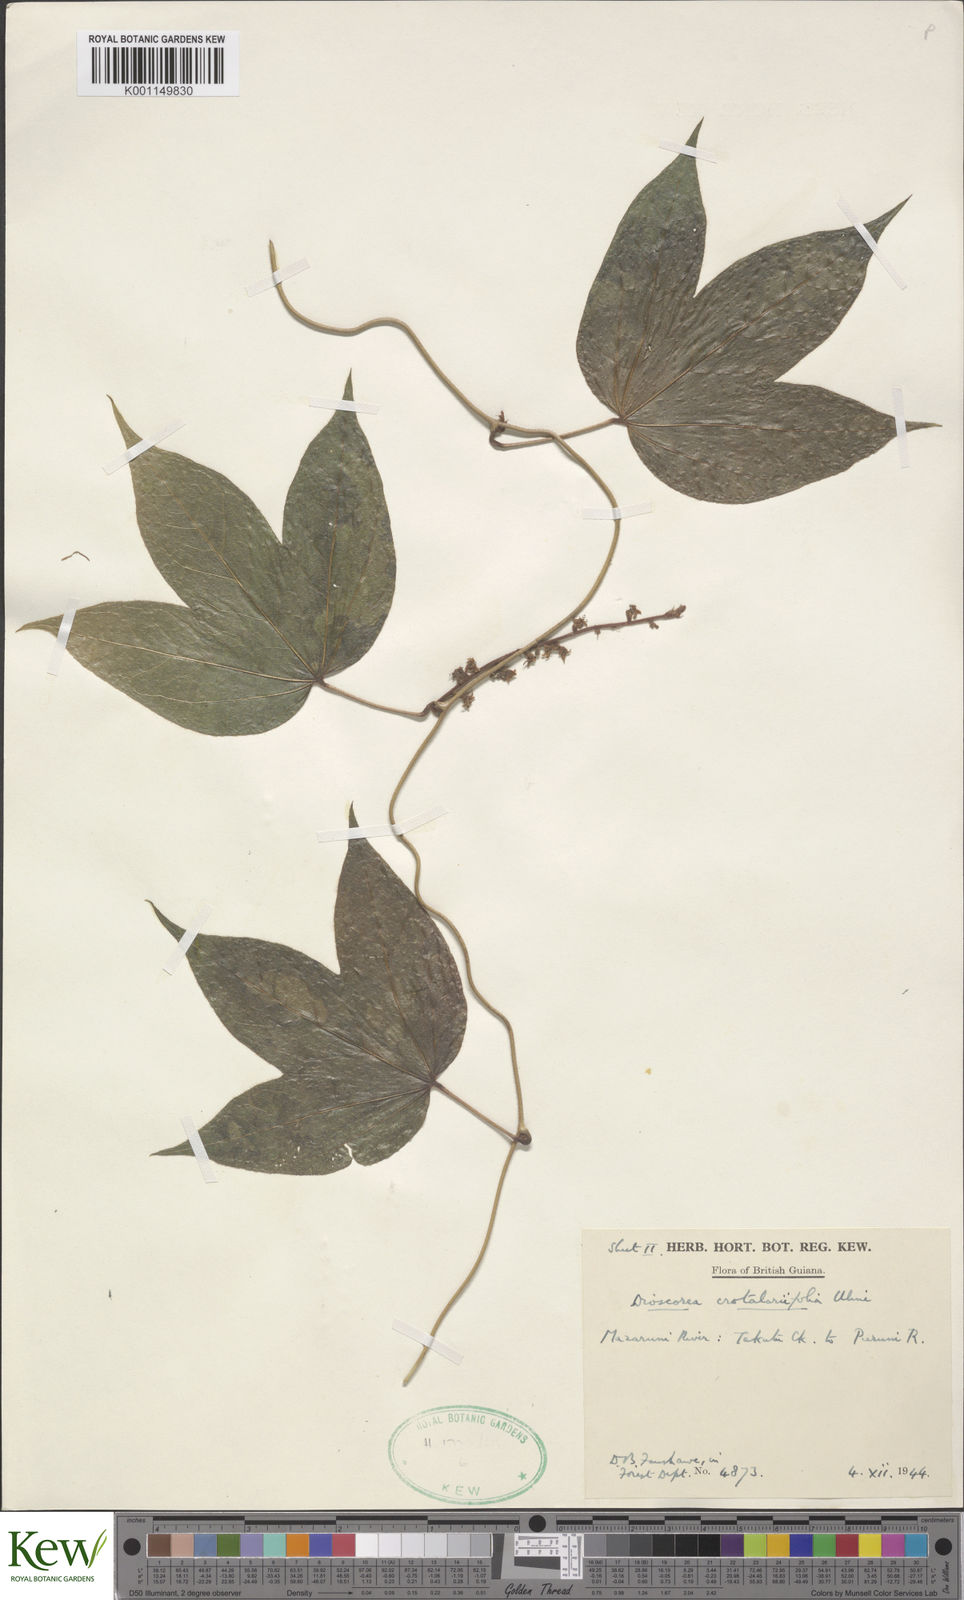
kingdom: Plantae
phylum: Tracheophyta
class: Liliopsida
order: Dioscoreales
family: Dioscoreaceae
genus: Dioscorea
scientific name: Dioscorea crotalariifolia
